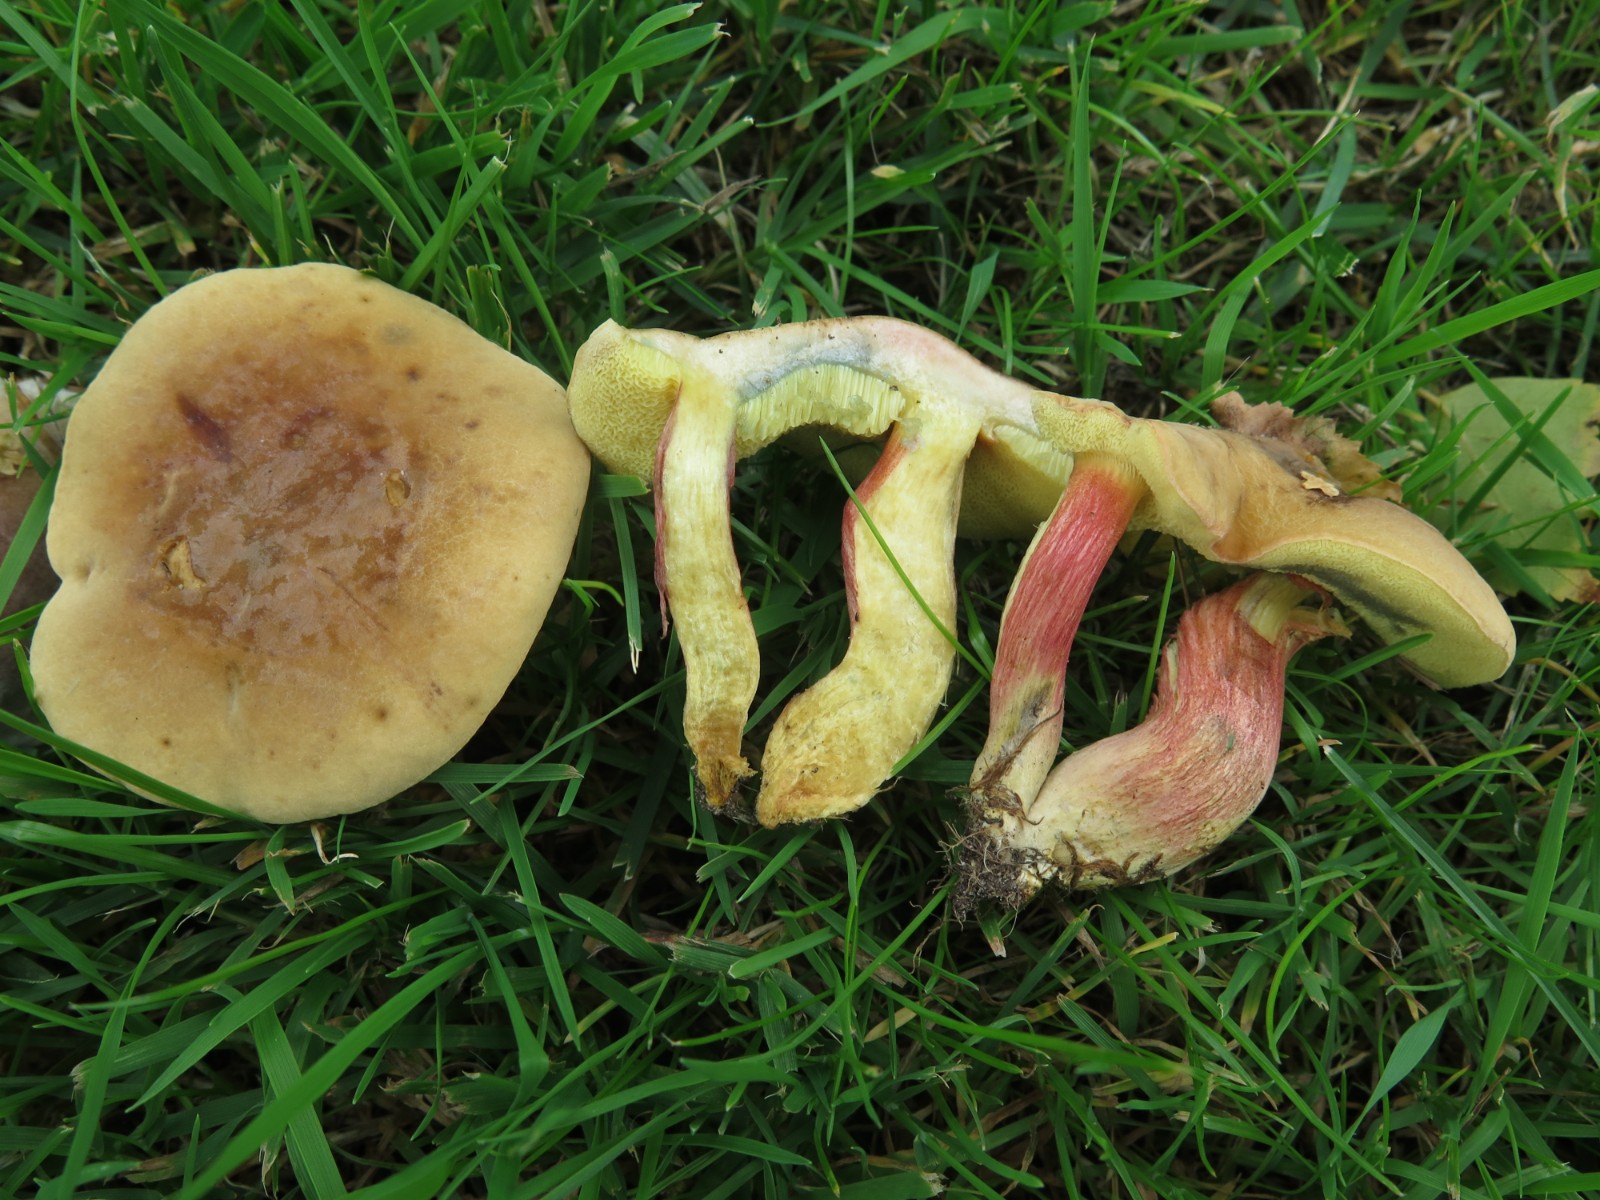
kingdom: Fungi
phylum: Basidiomycota
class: Agaricomycetes
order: Boletales
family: Boletaceae
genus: Hortiboletus
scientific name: Hortiboletus bubalinus
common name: aurora-rørhat
